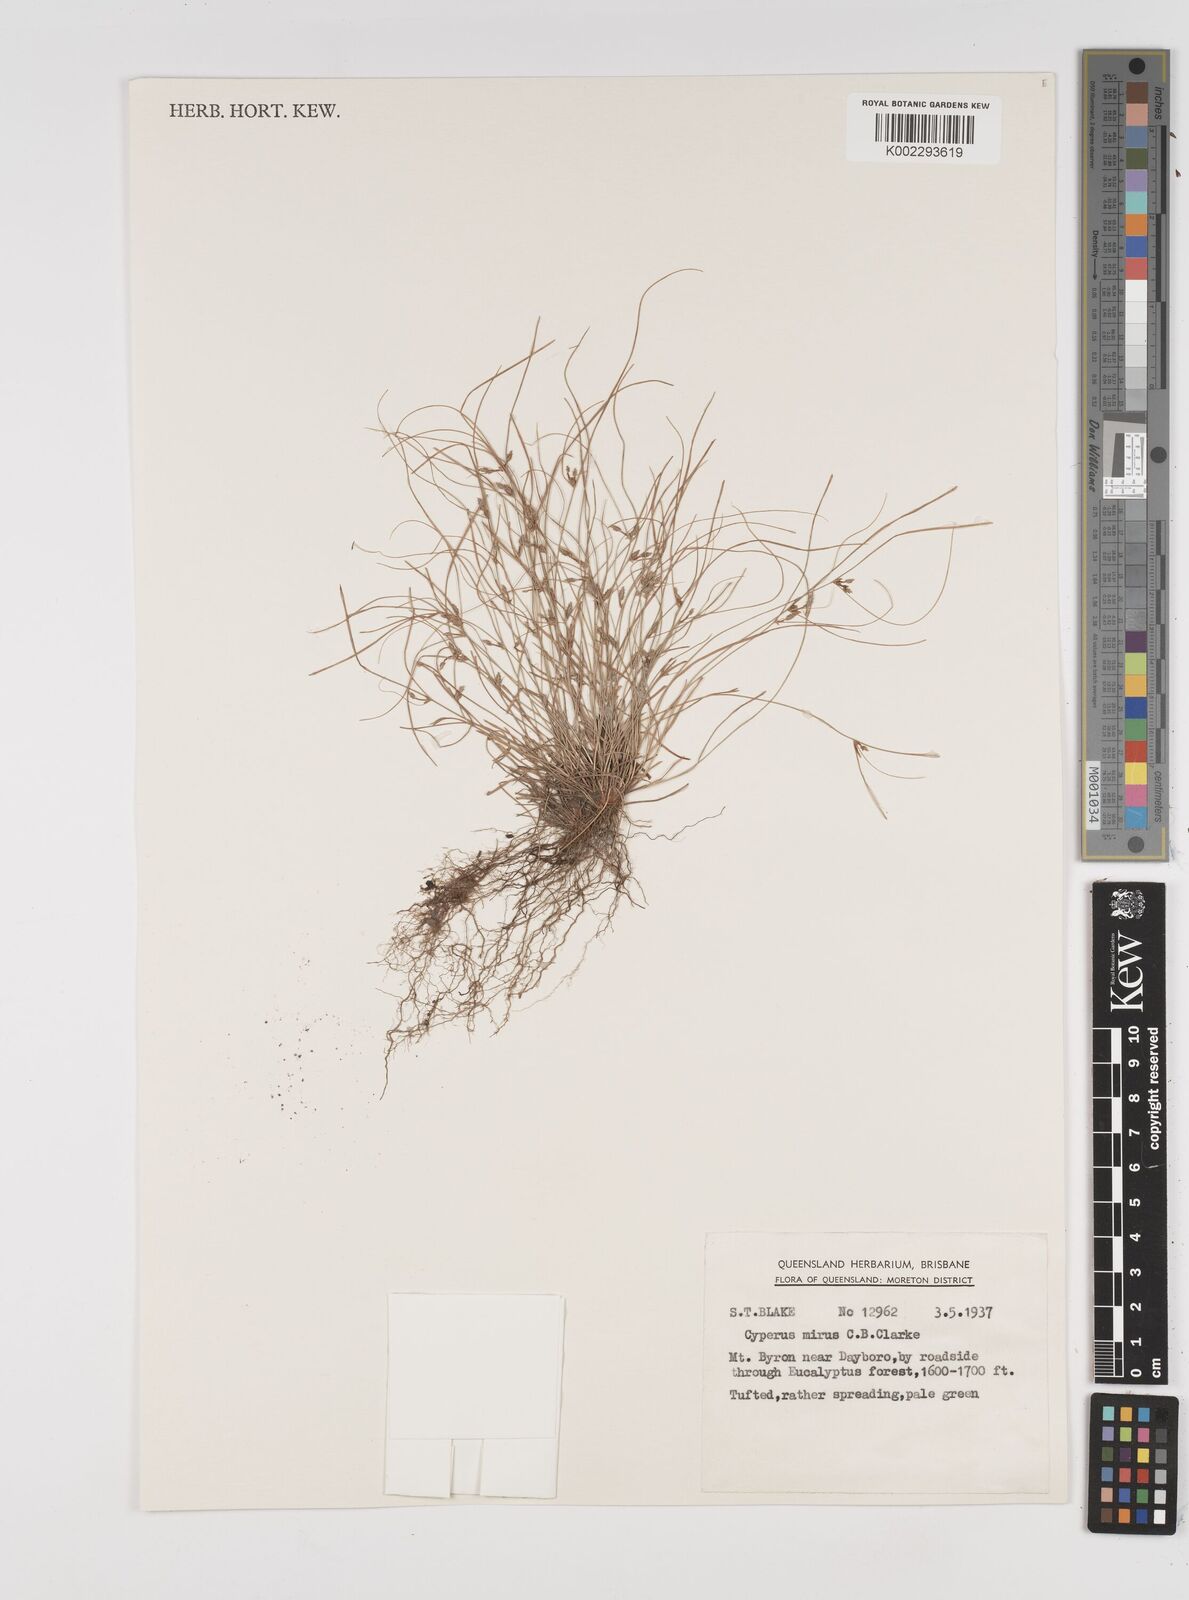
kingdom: Plantae
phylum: Tracheophyta
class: Liliopsida
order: Poales
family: Cyperaceae
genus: Cyperus
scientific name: Cyperus mirus
